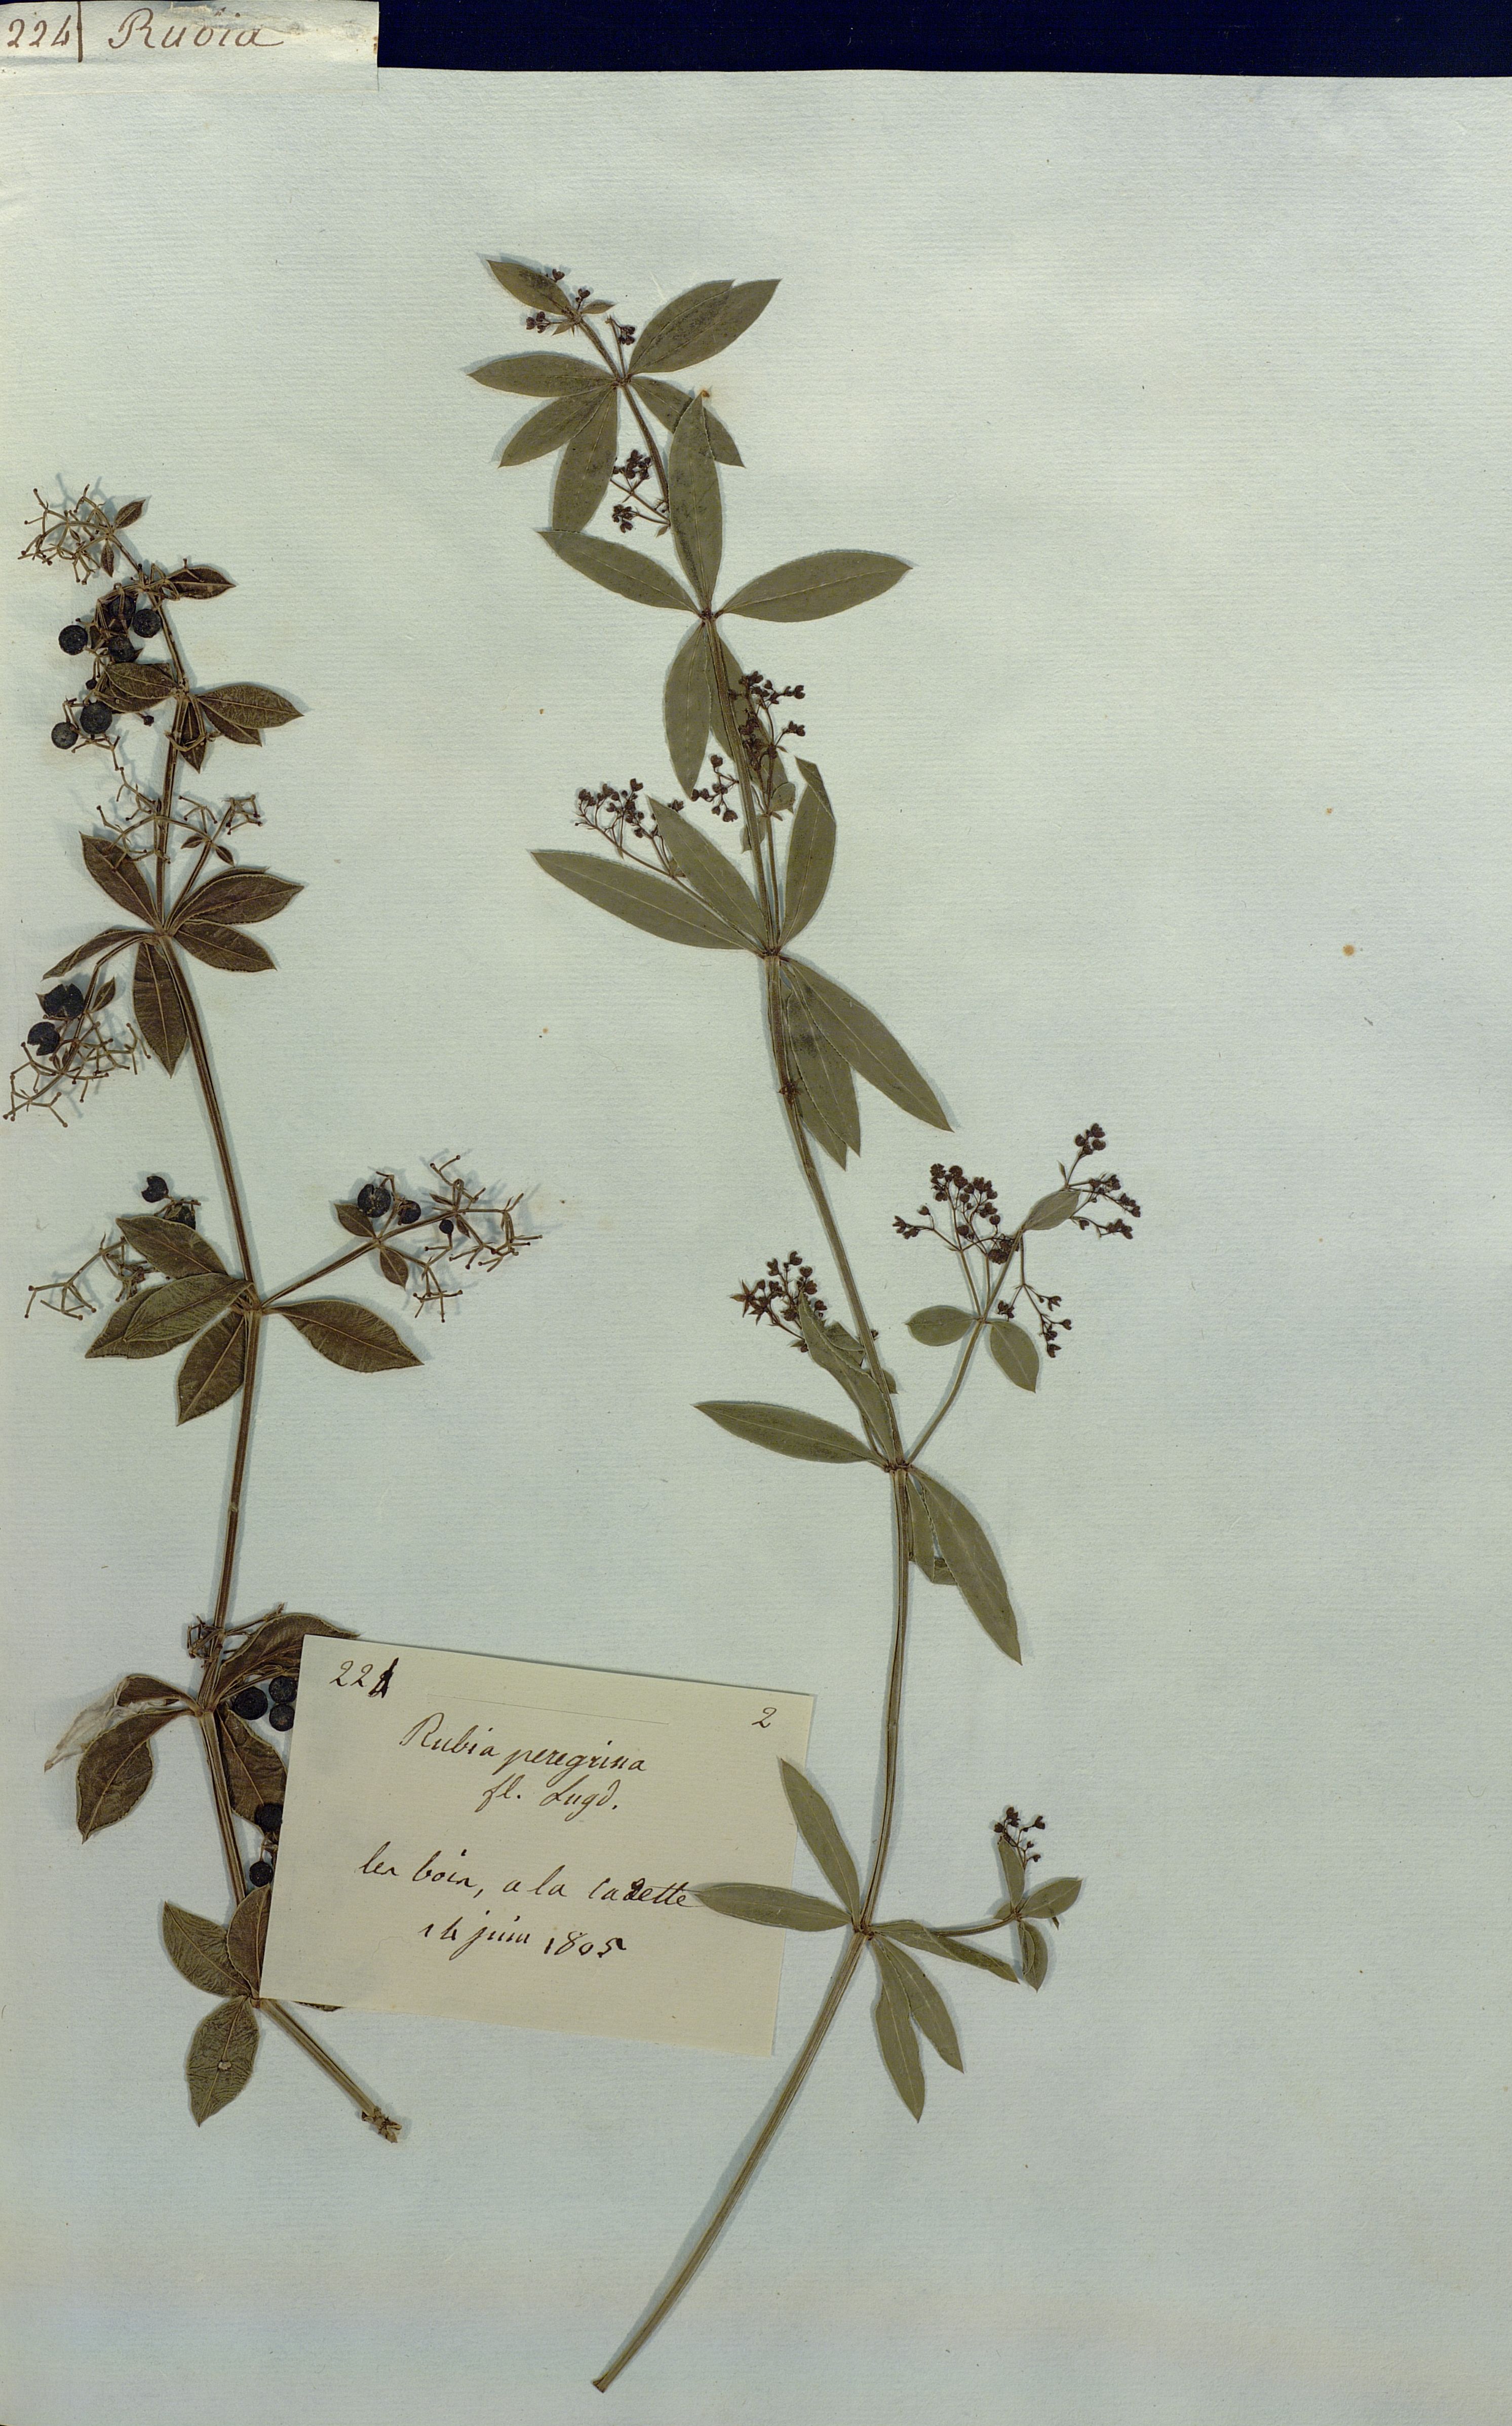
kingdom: Plantae
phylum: Tracheophyta
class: Magnoliopsida
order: Gentianales
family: Rubiaceae
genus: Rubia
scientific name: Rubia peregrina
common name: Wild madder
